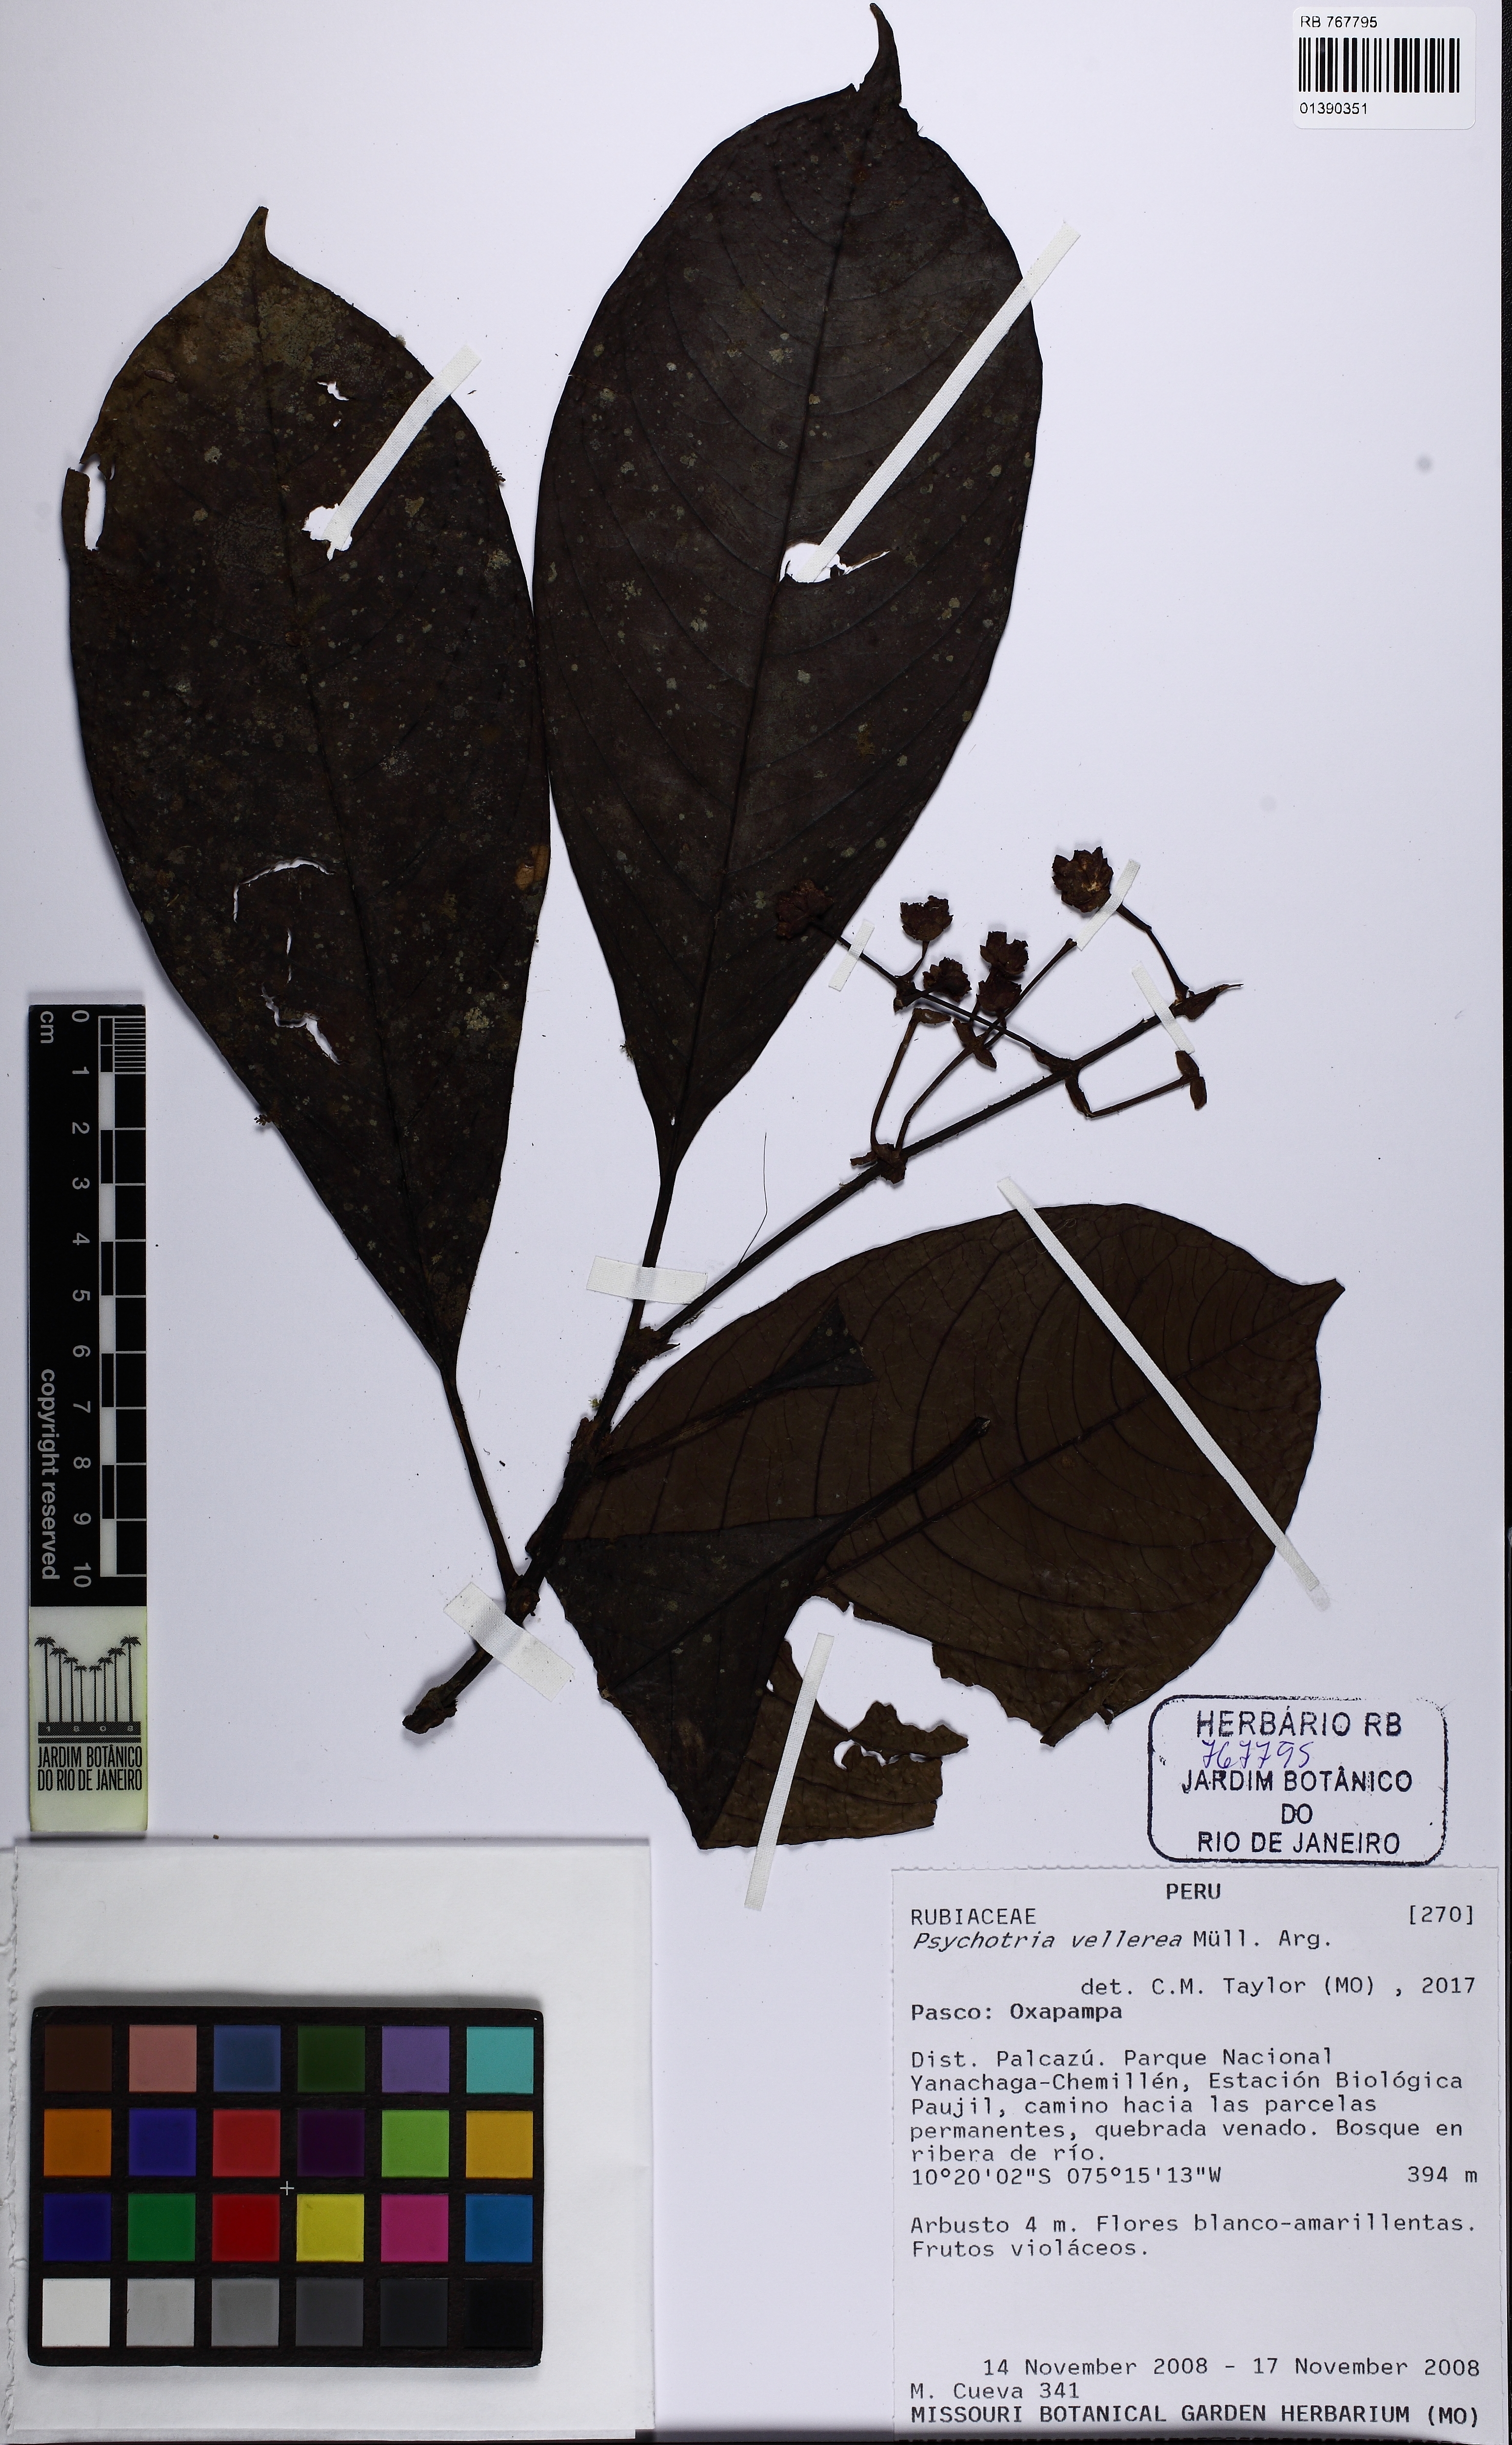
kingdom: Plantae
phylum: Tracheophyta
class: Magnoliopsida
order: Gentianales
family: Rubiaceae
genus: Palicourea
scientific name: Palicourea vellerea
